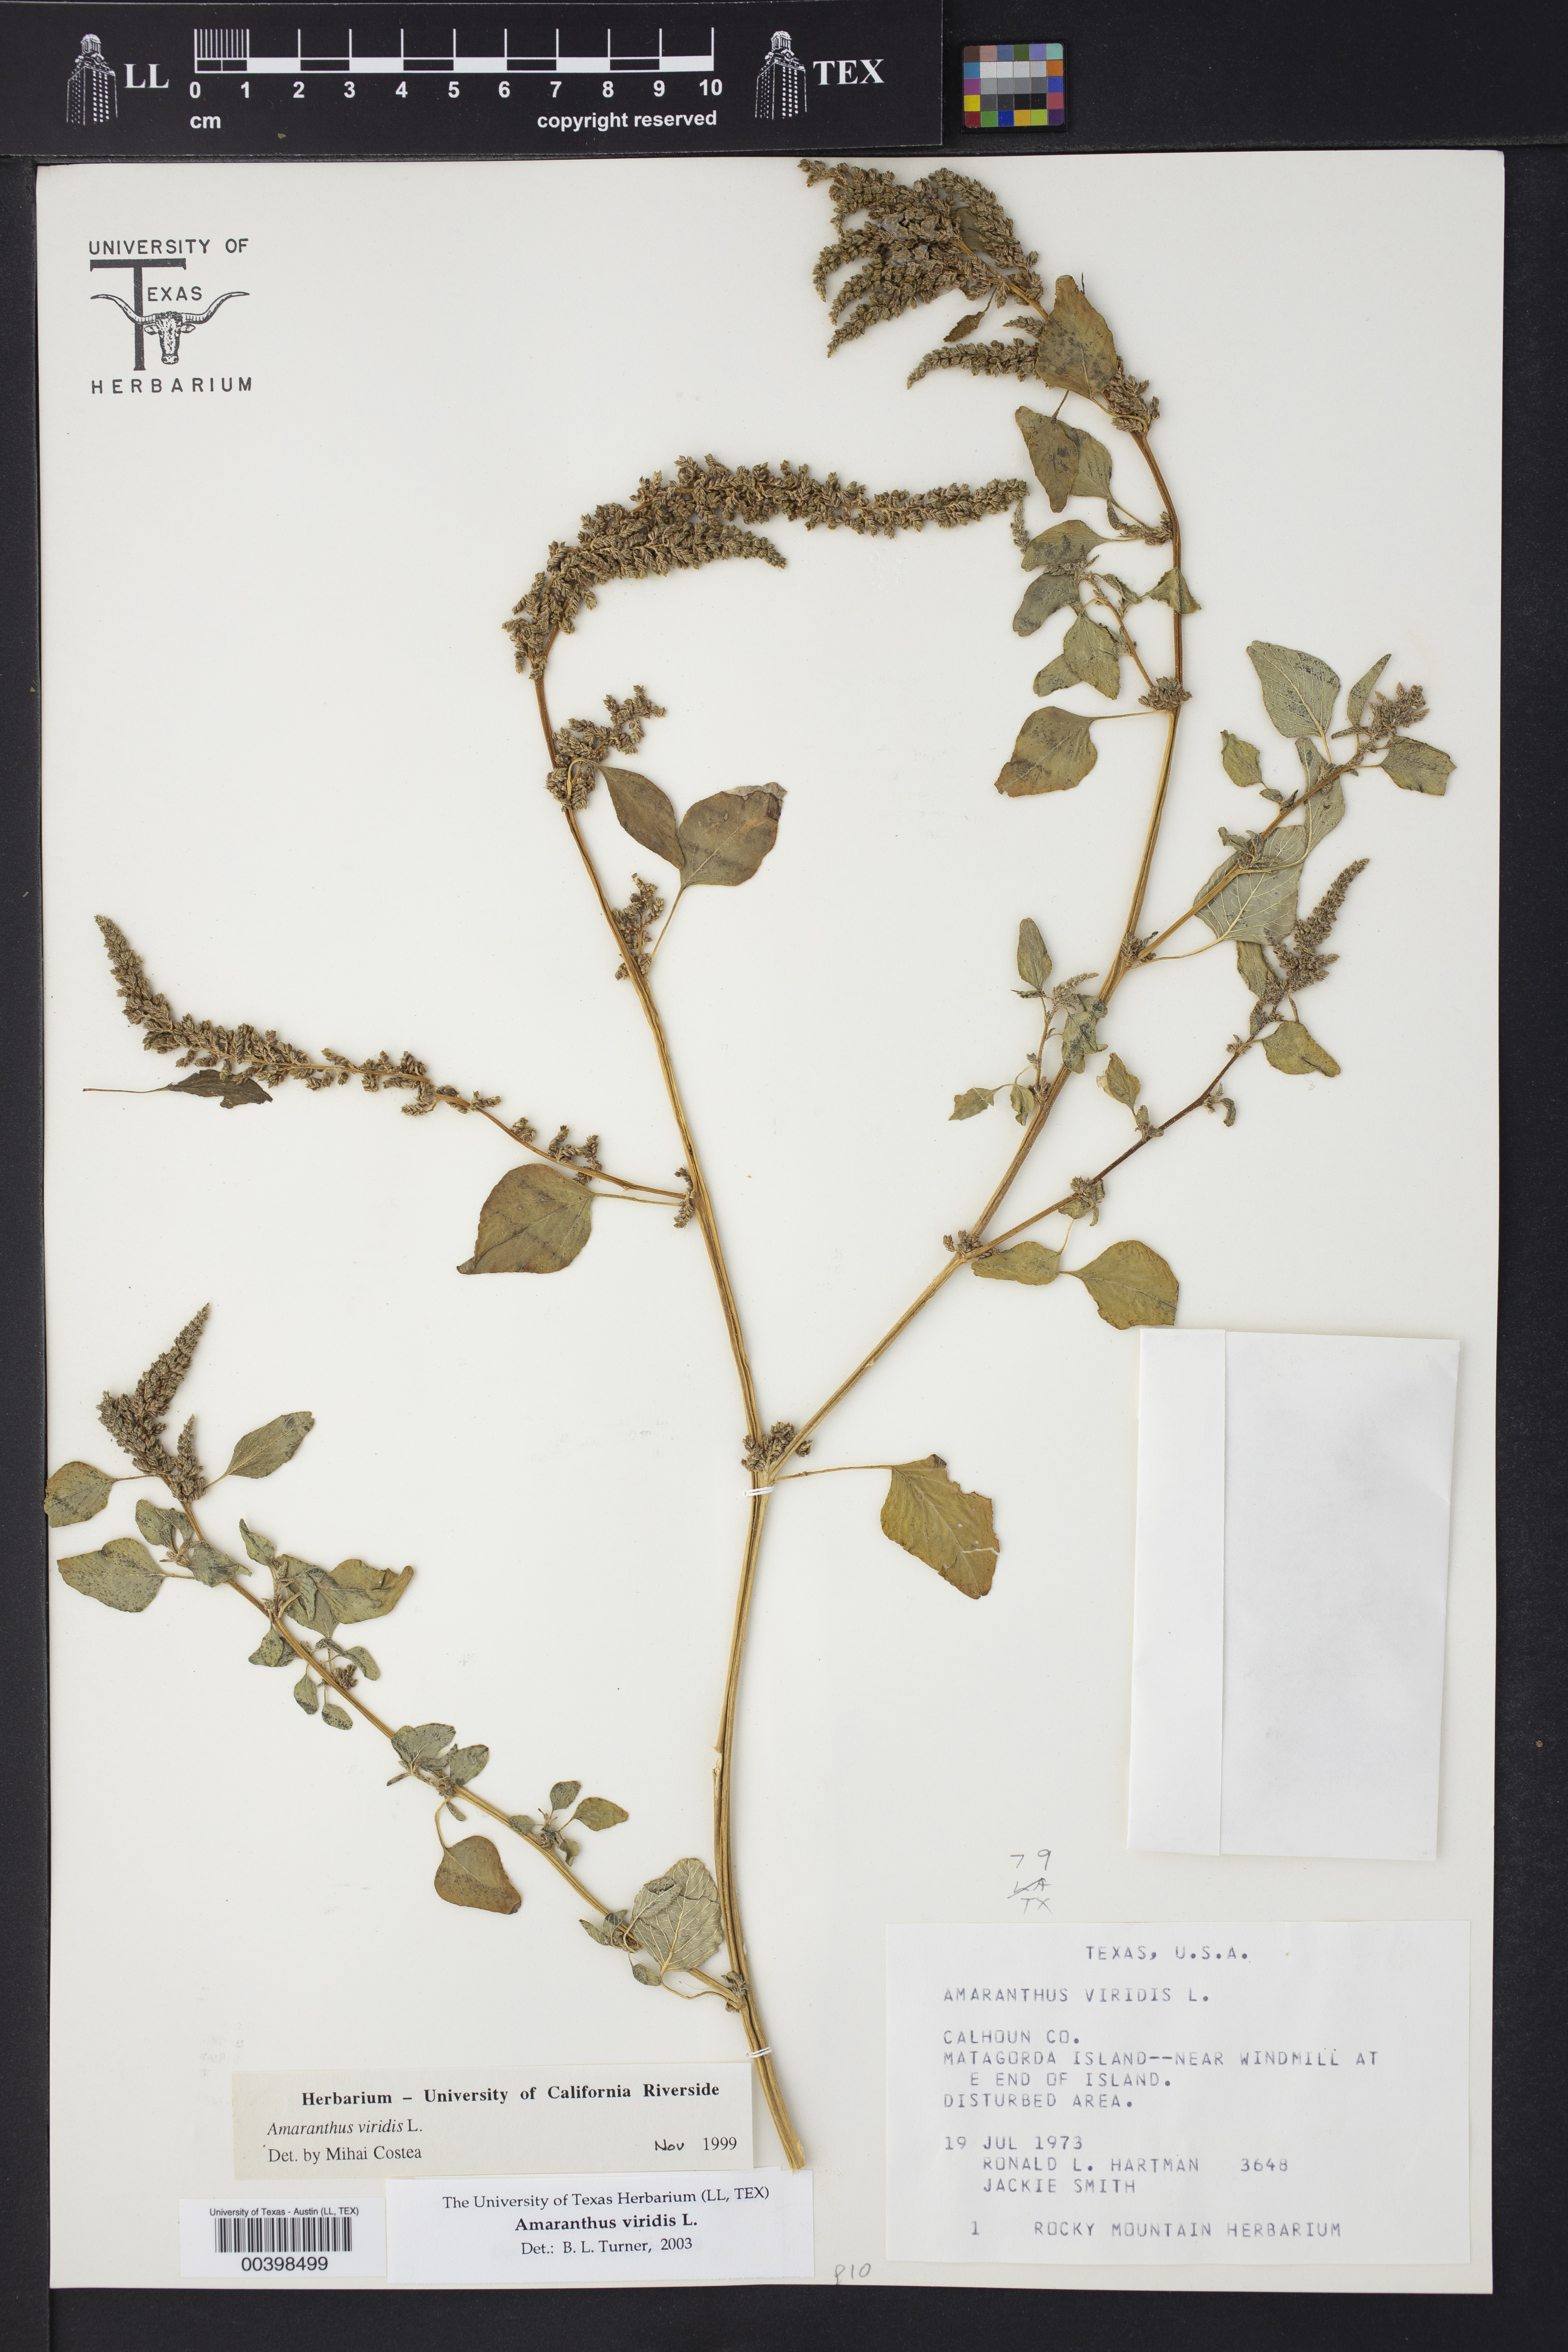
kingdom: Plantae
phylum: Tracheophyta
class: Magnoliopsida
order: Caryophyllales
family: Amaranthaceae
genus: Amaranthus
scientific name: Amaranthus viridis
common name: Slender amaranth
